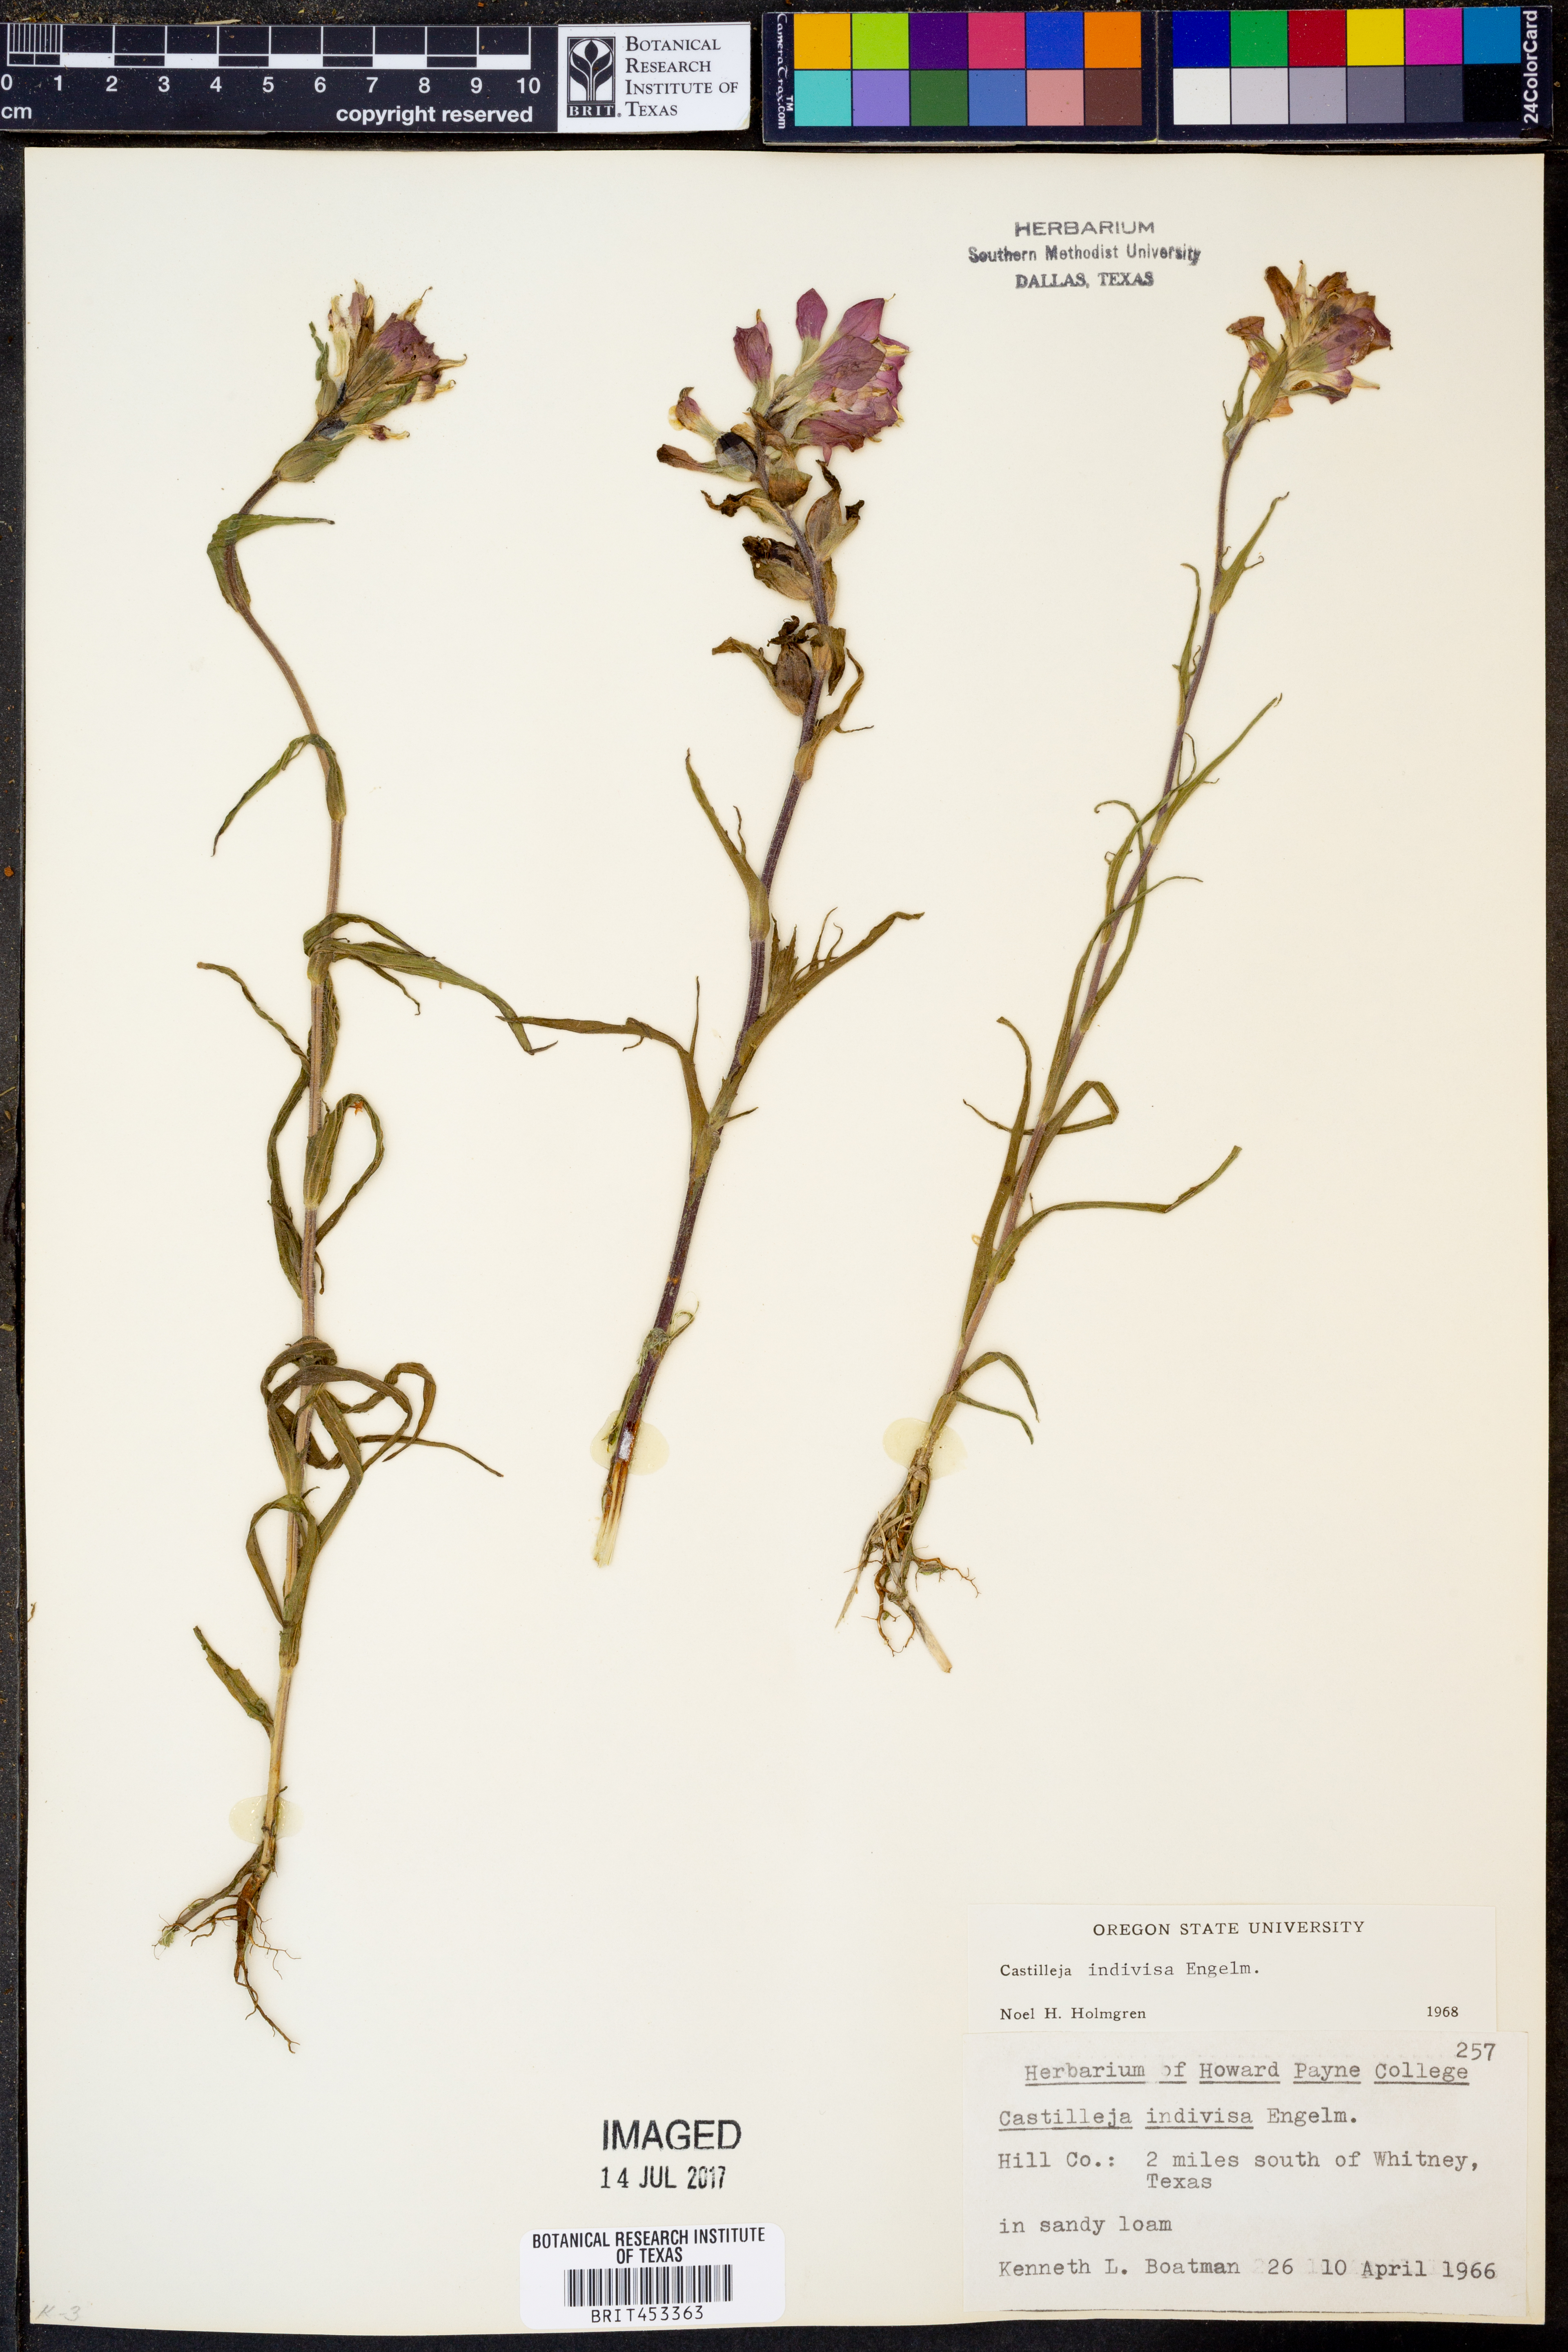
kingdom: Plantae
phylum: Tracheophyta
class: Magnoliopsida
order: Lamiales
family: Orobanchaceae
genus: Castilleja
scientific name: Castilleja indivisa
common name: Texas paintbrush
